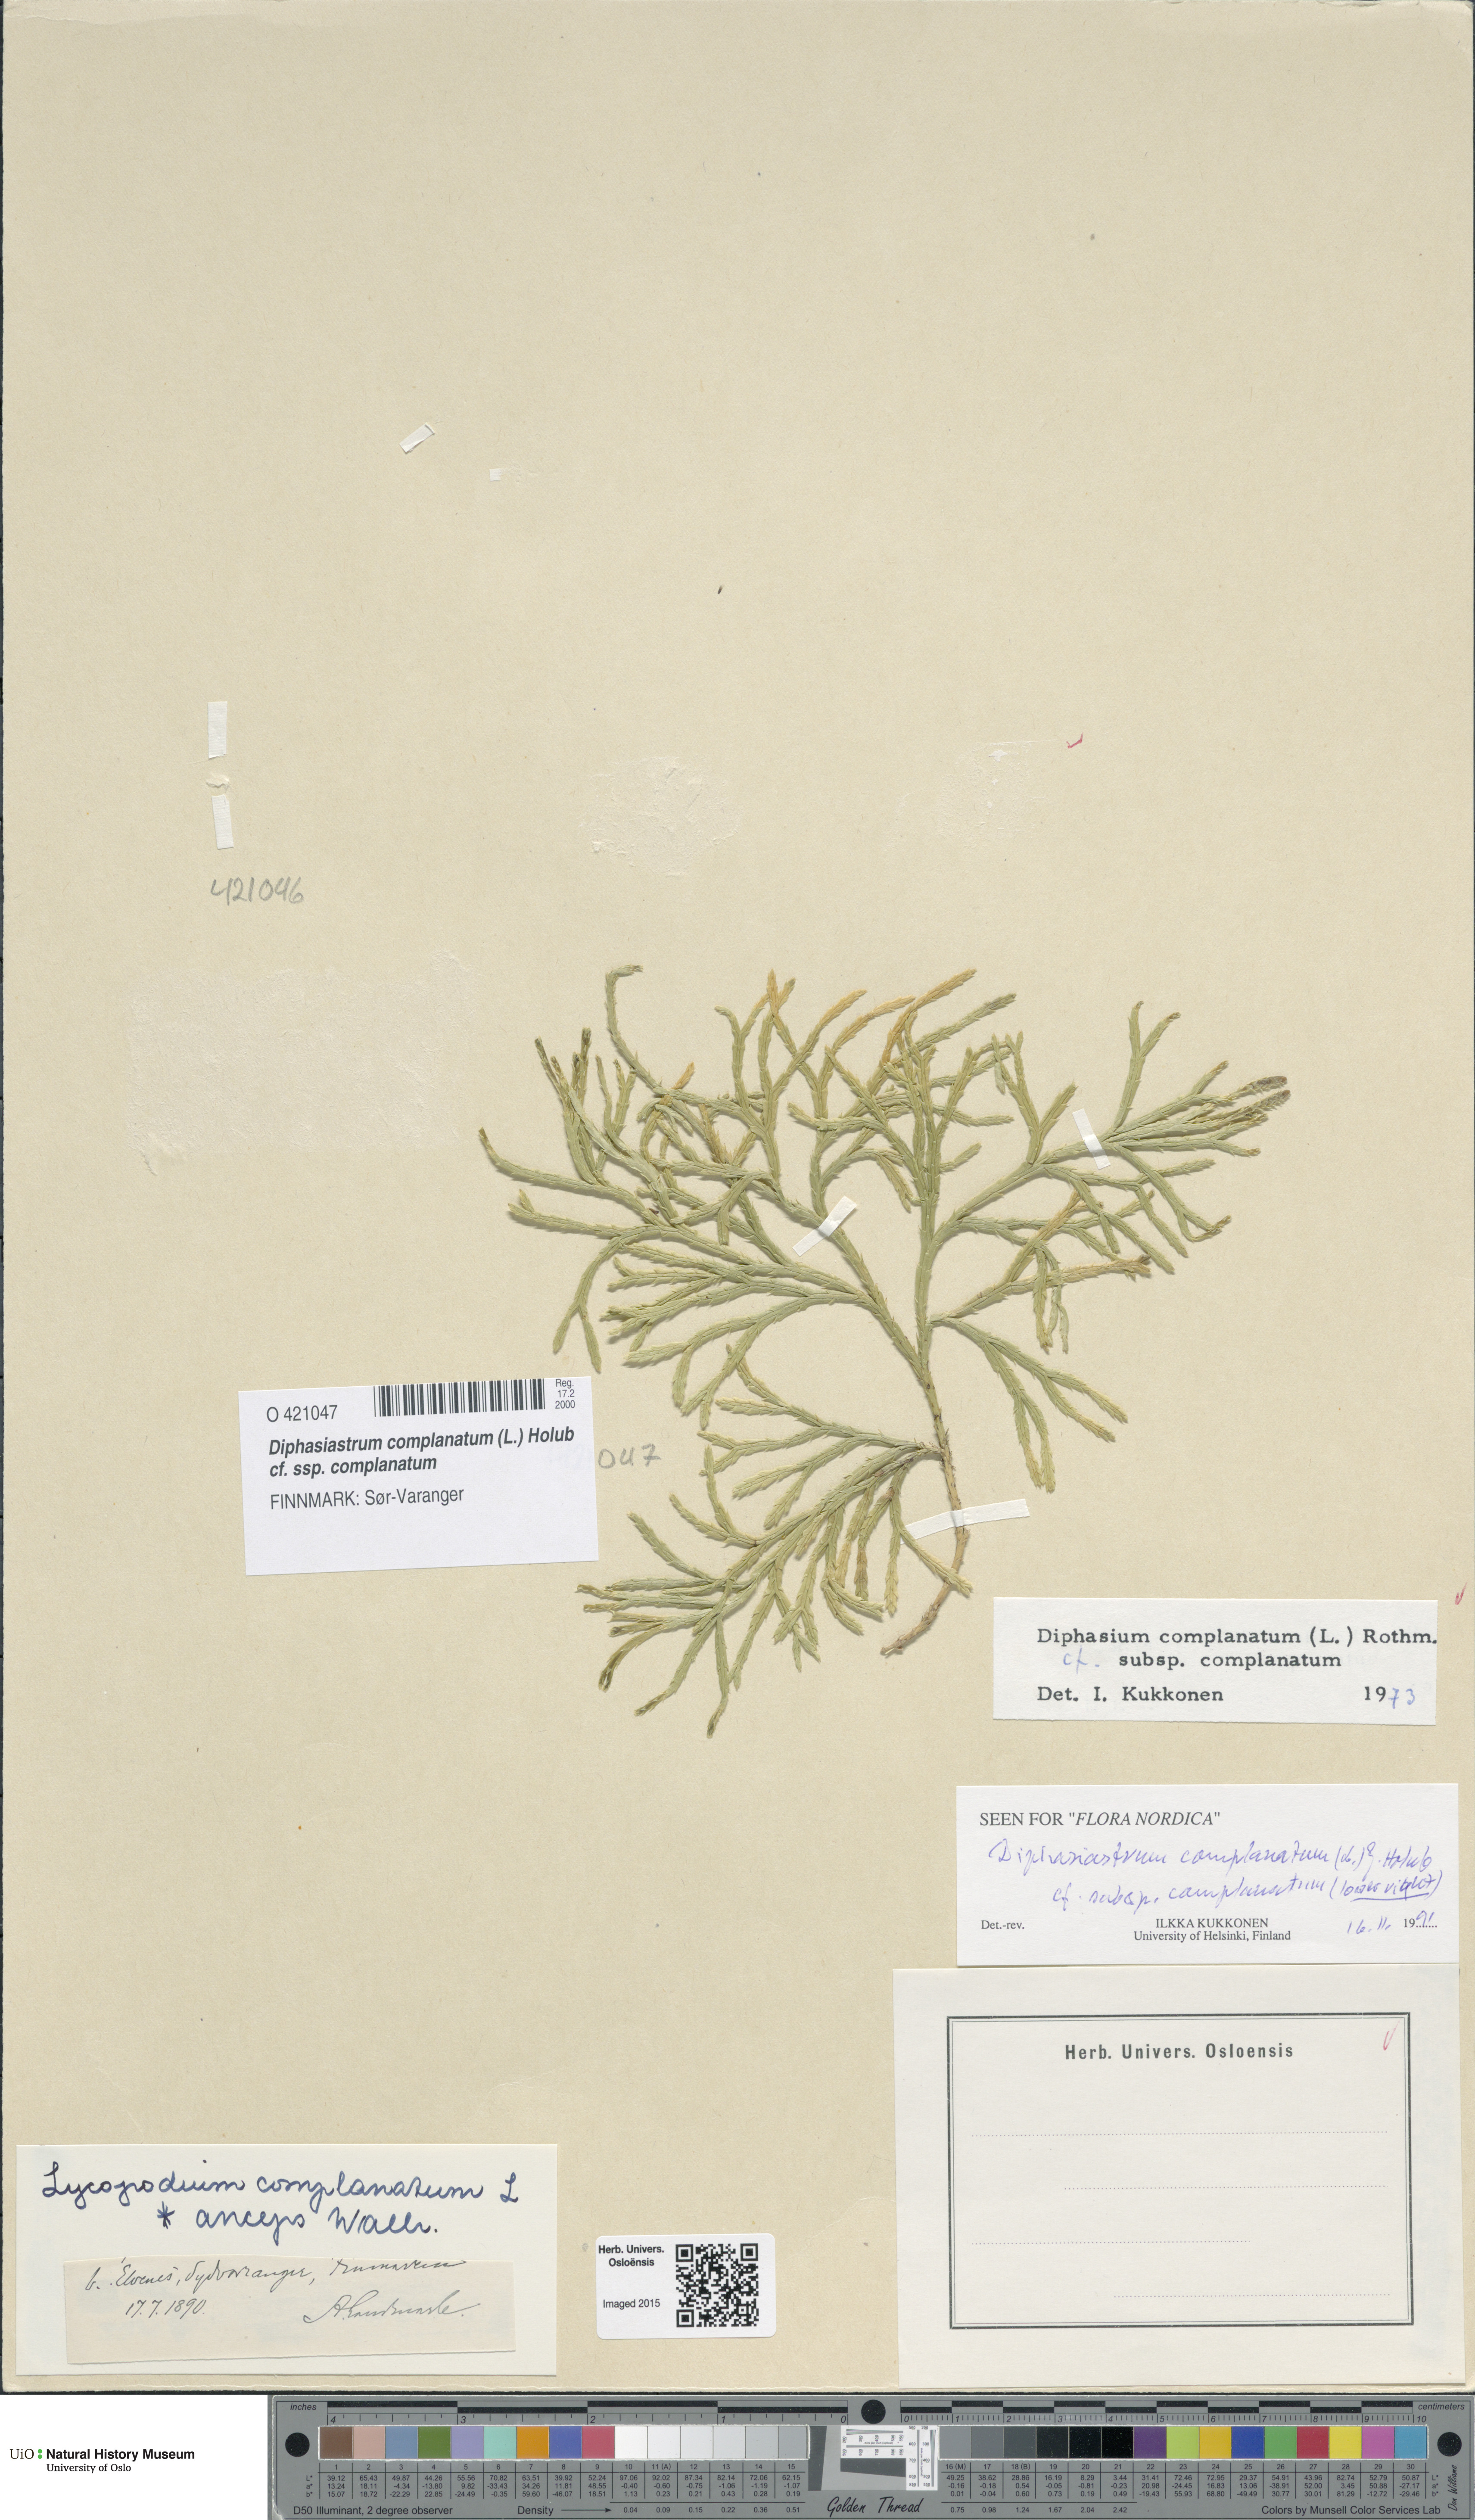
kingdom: Plantae
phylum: Tracheophyta
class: Lycopodiopsida
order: Lycopodiales
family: Lycopodiaceae
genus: Diphasiastrum
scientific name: Diphasiastrum complanatum
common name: Northern running-pine
